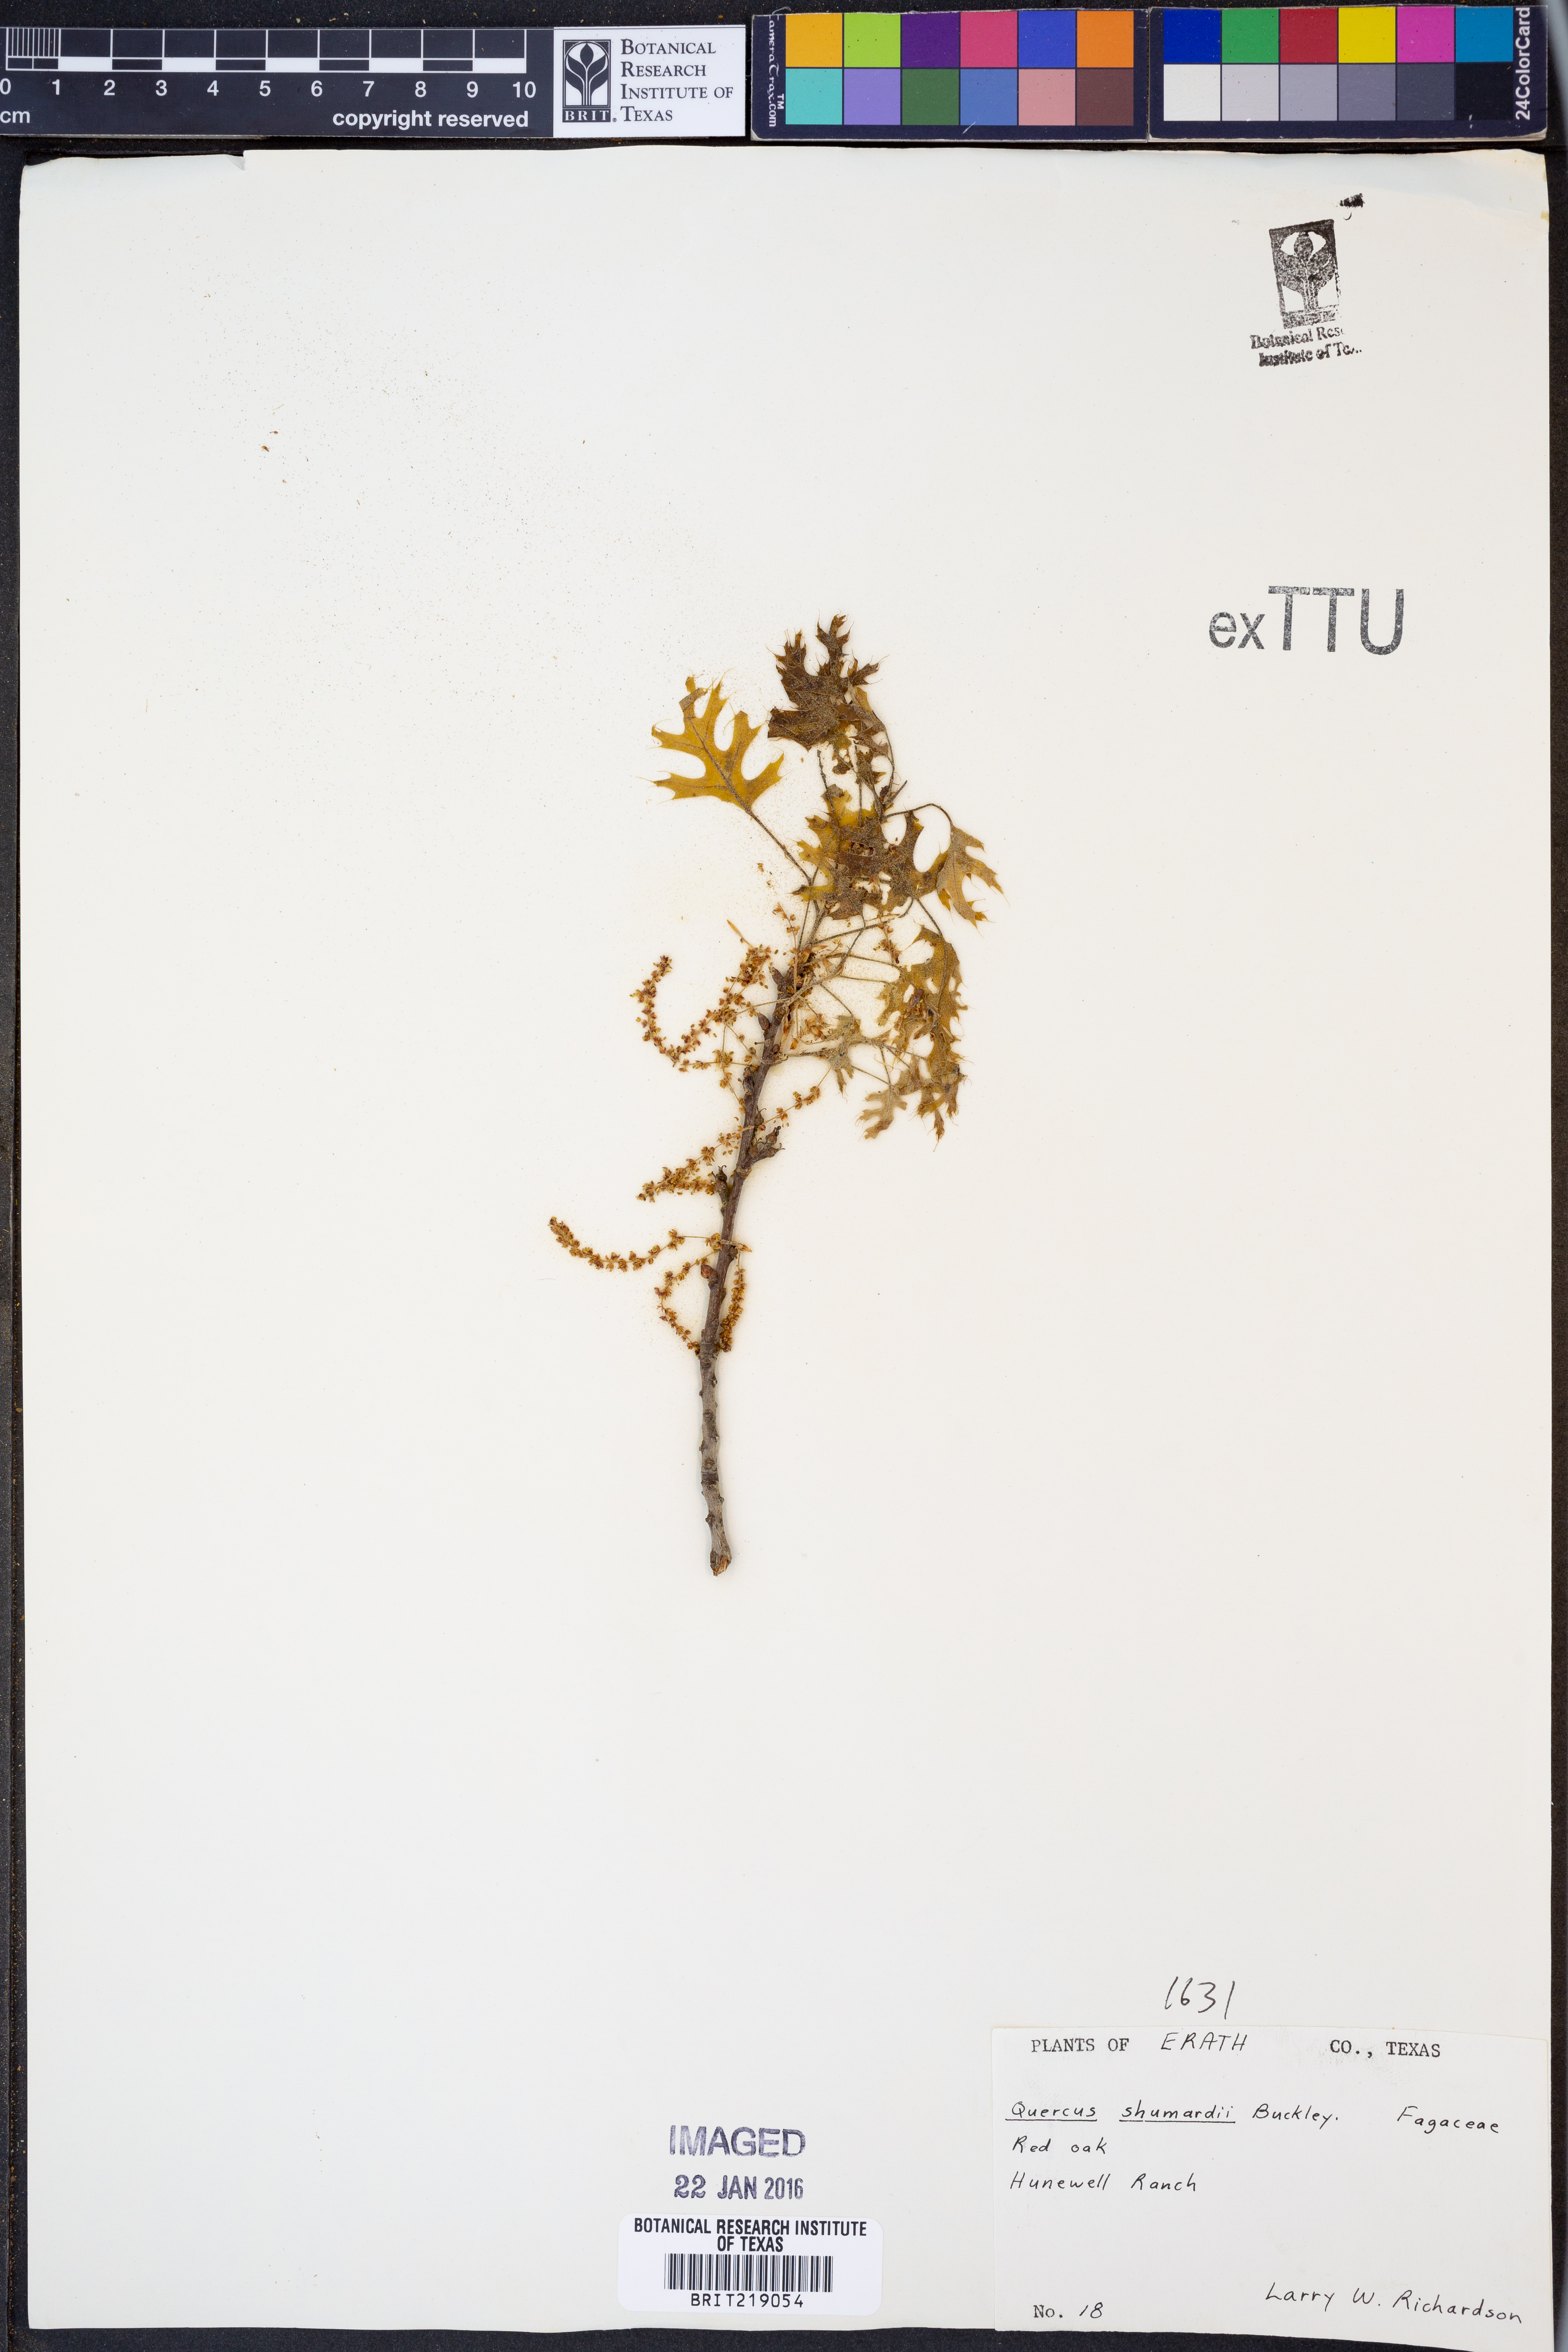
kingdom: Plantae
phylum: Tracheophyta
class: Magnoliopsida
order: Fagales
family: Fagaceae
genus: Quercus
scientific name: Quercus shumardii
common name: Shumard oak
